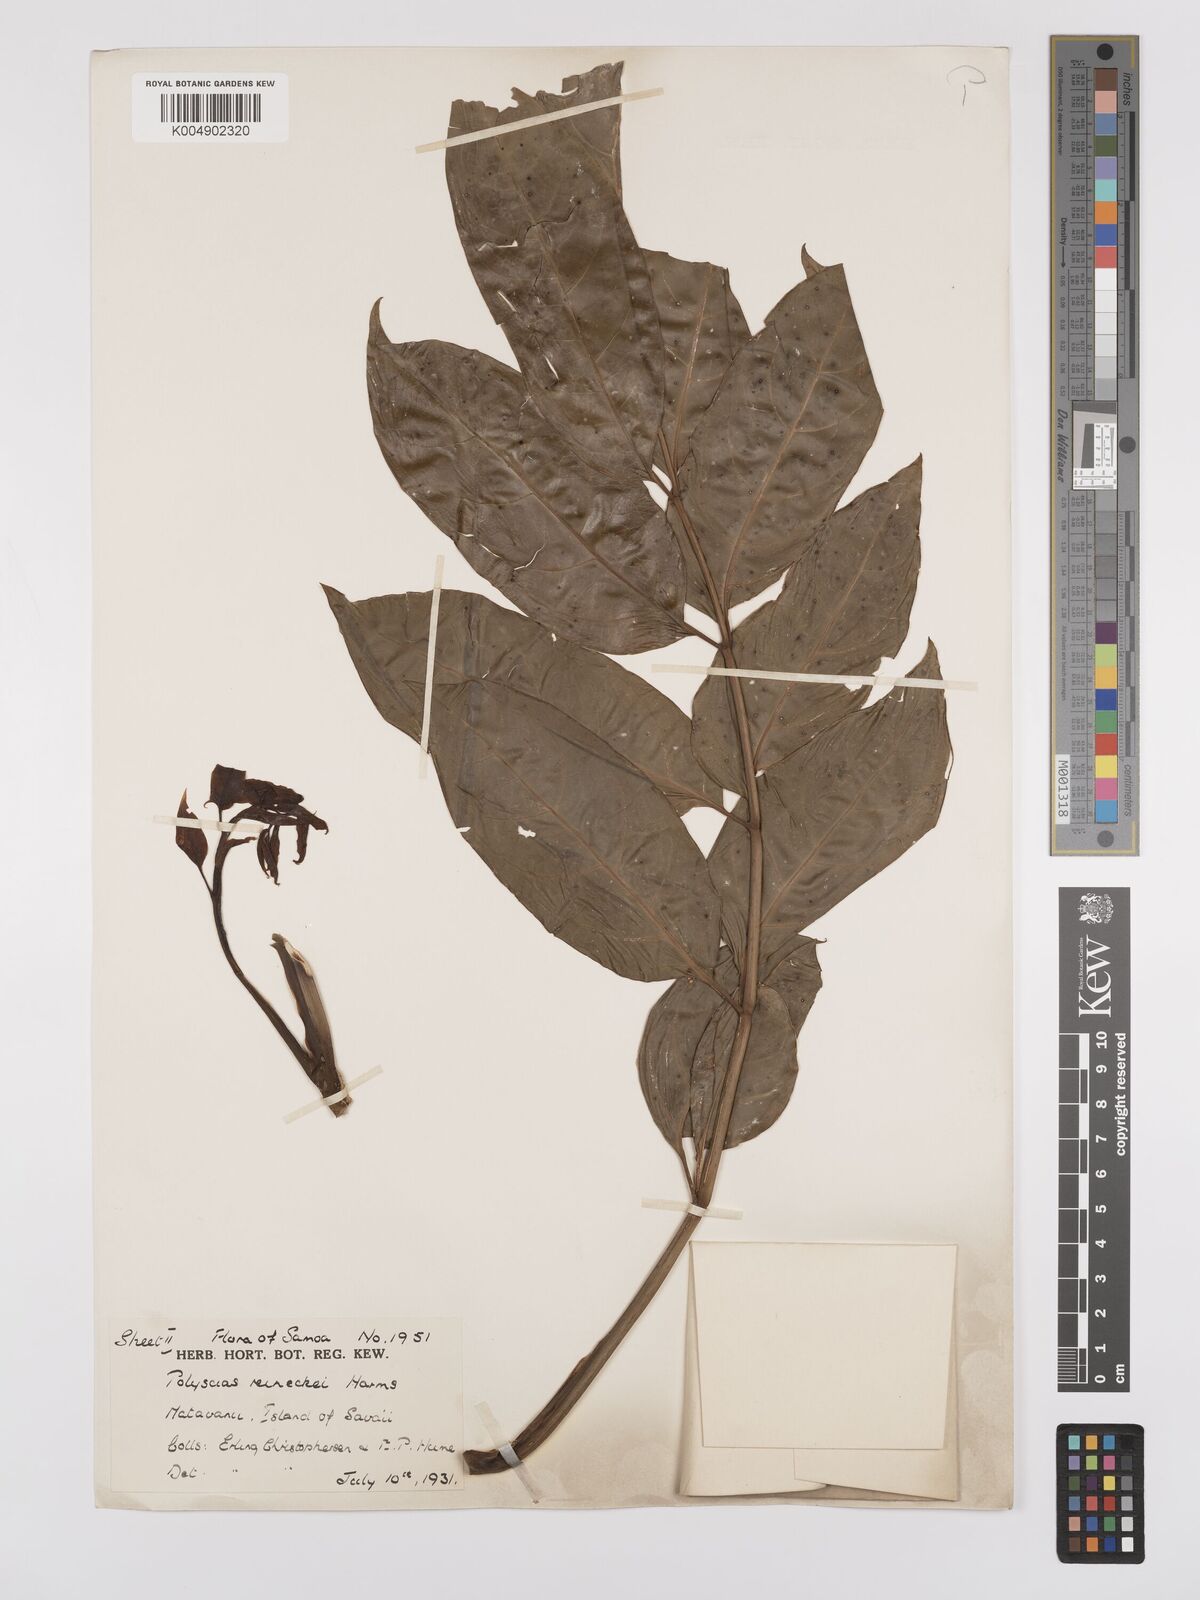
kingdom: Plantae
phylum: Tracheophyta
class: Magnoliopsida
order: Apiales
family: Araliaceae
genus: Polyscias
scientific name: Polyscias reineckei
